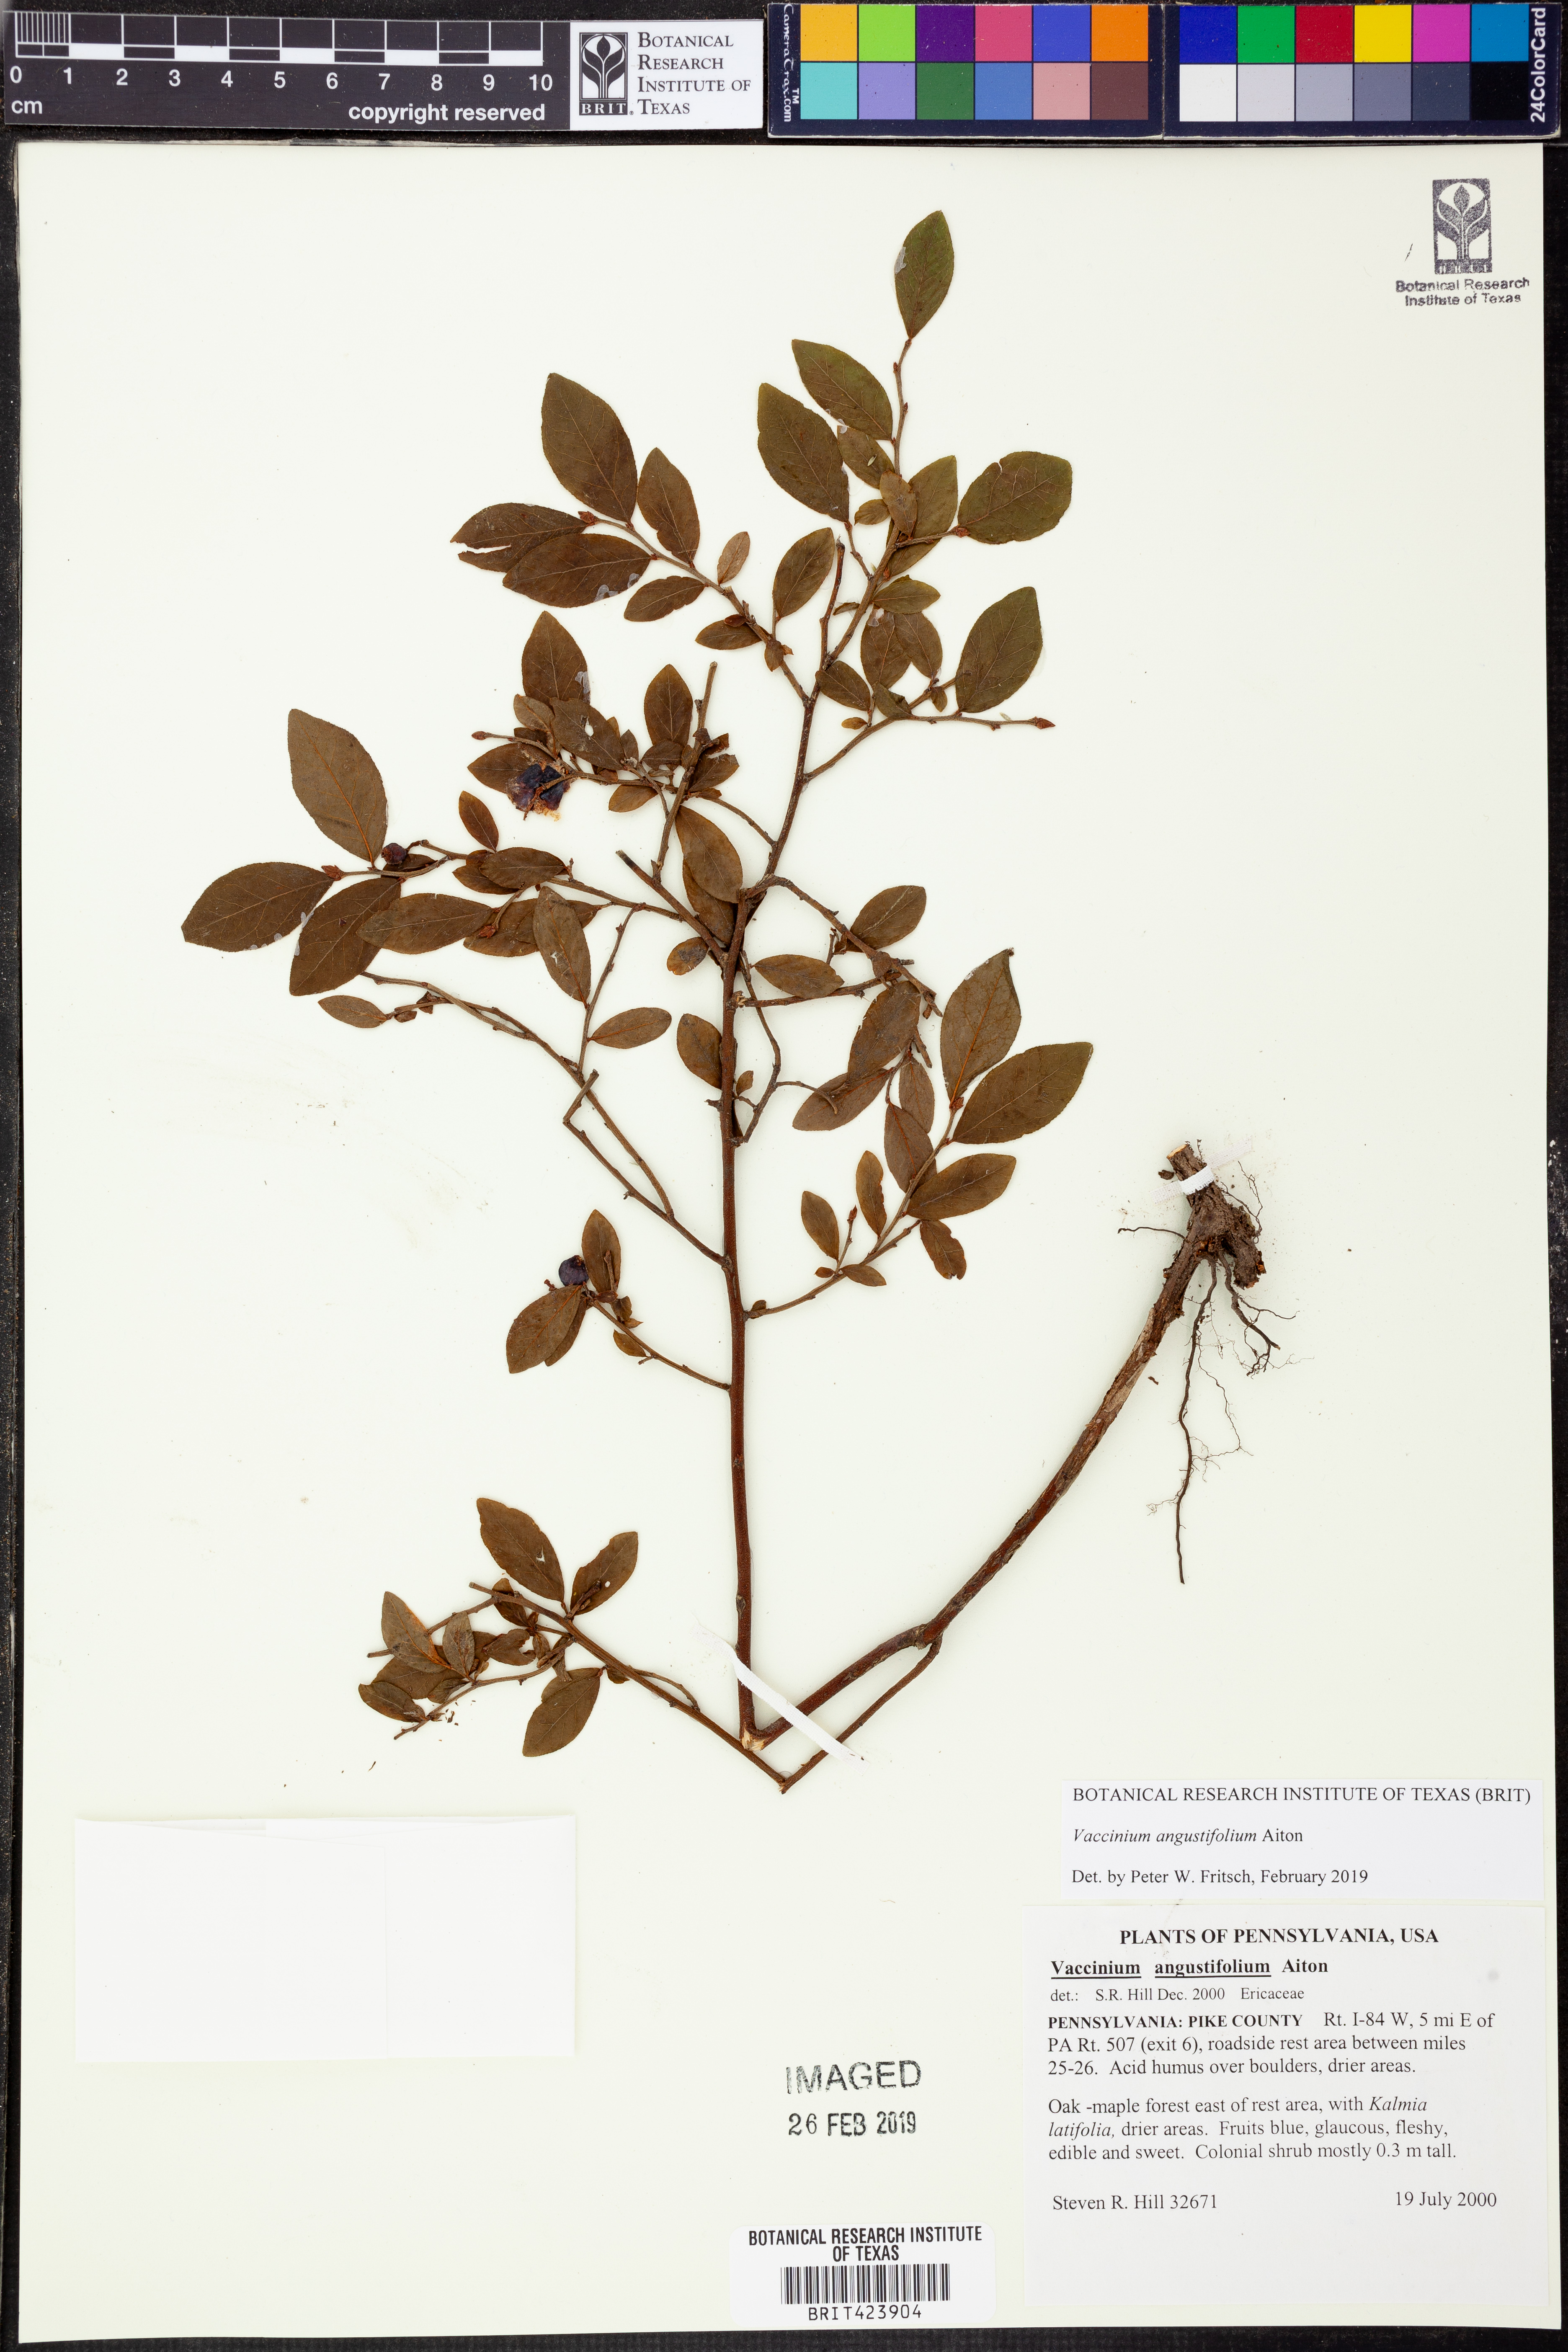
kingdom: Plantae
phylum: Tracheophyta
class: Magnoliopsida
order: Ericales
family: Ericaceae
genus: Vaccinium
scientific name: Vaccinium angustifolium
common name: Early lowbush blueberry
